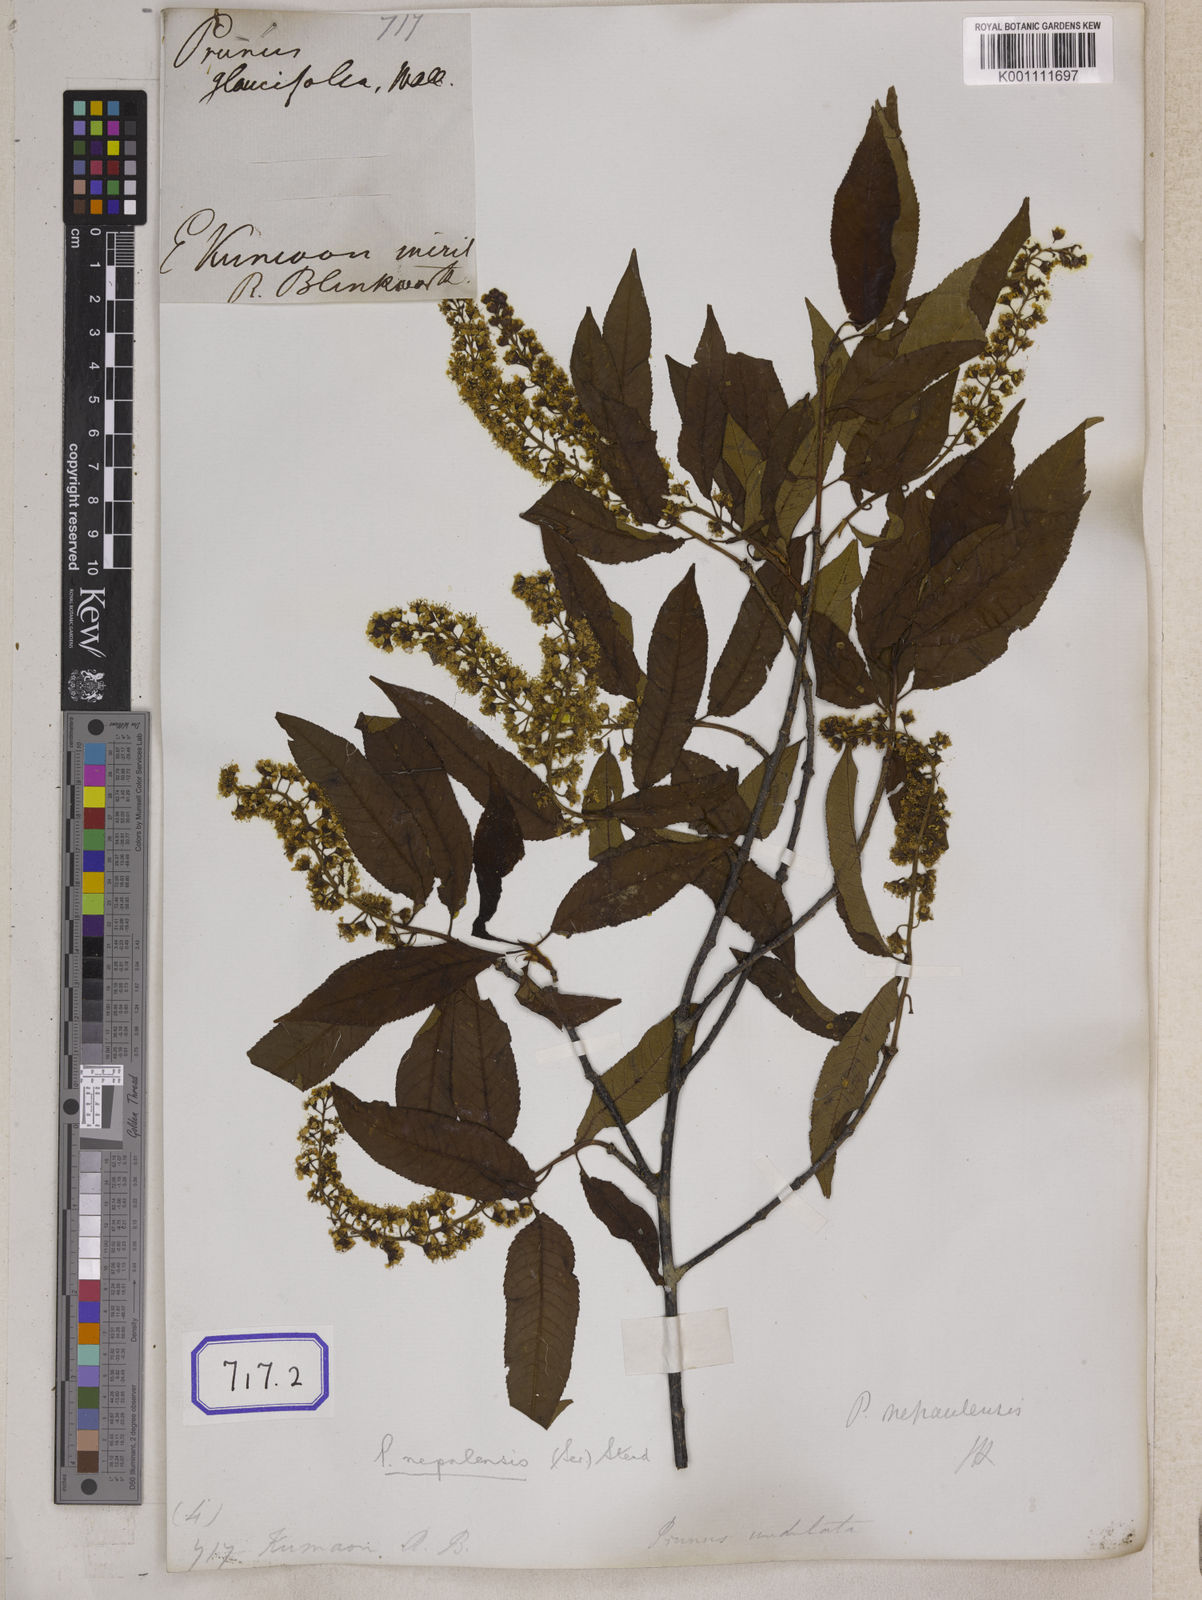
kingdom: Plantae
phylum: Tracheophyta
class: Magnoliopsida
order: Rosales
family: Rosaceae
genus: Prunus
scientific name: Prunus napaulensis
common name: Khasia cherry
